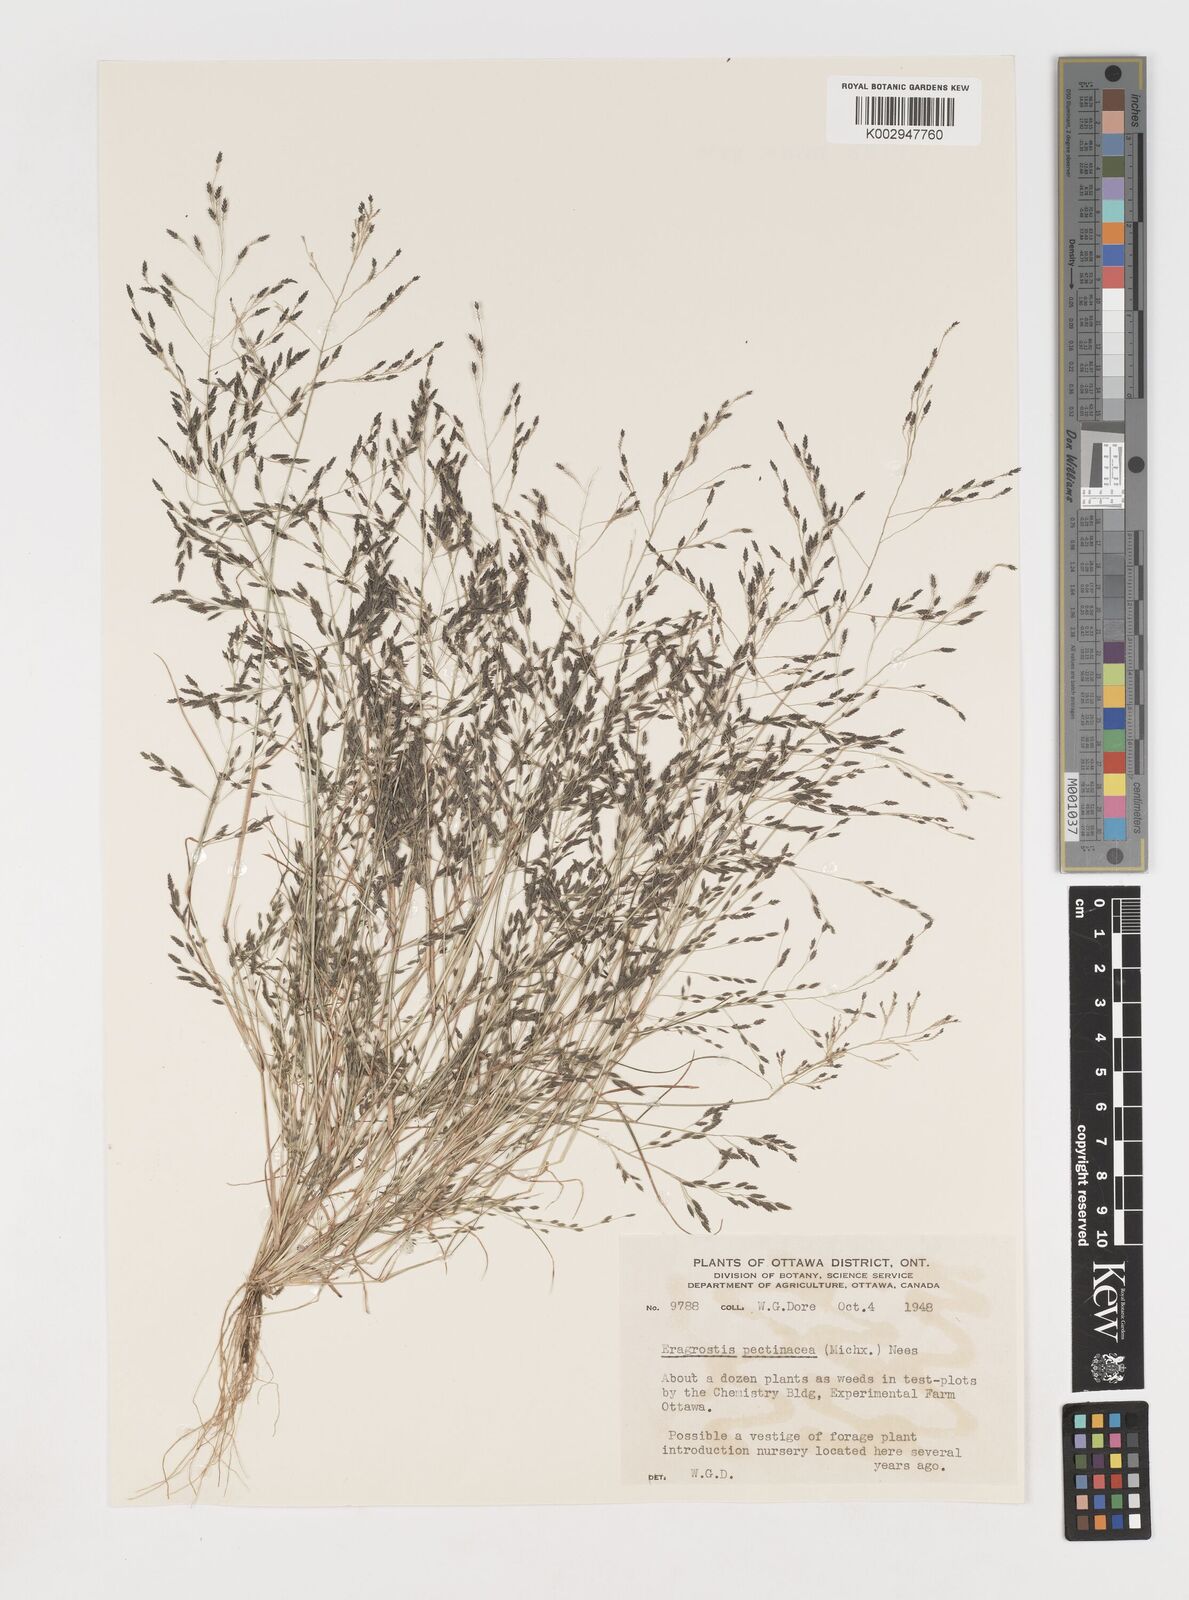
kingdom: Plantae
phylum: Tracheophyta
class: Liliopsida
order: Poales
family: Poaceae
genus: Eragrostis
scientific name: Eragrostis pectinacea
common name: Tufted lovegrass
